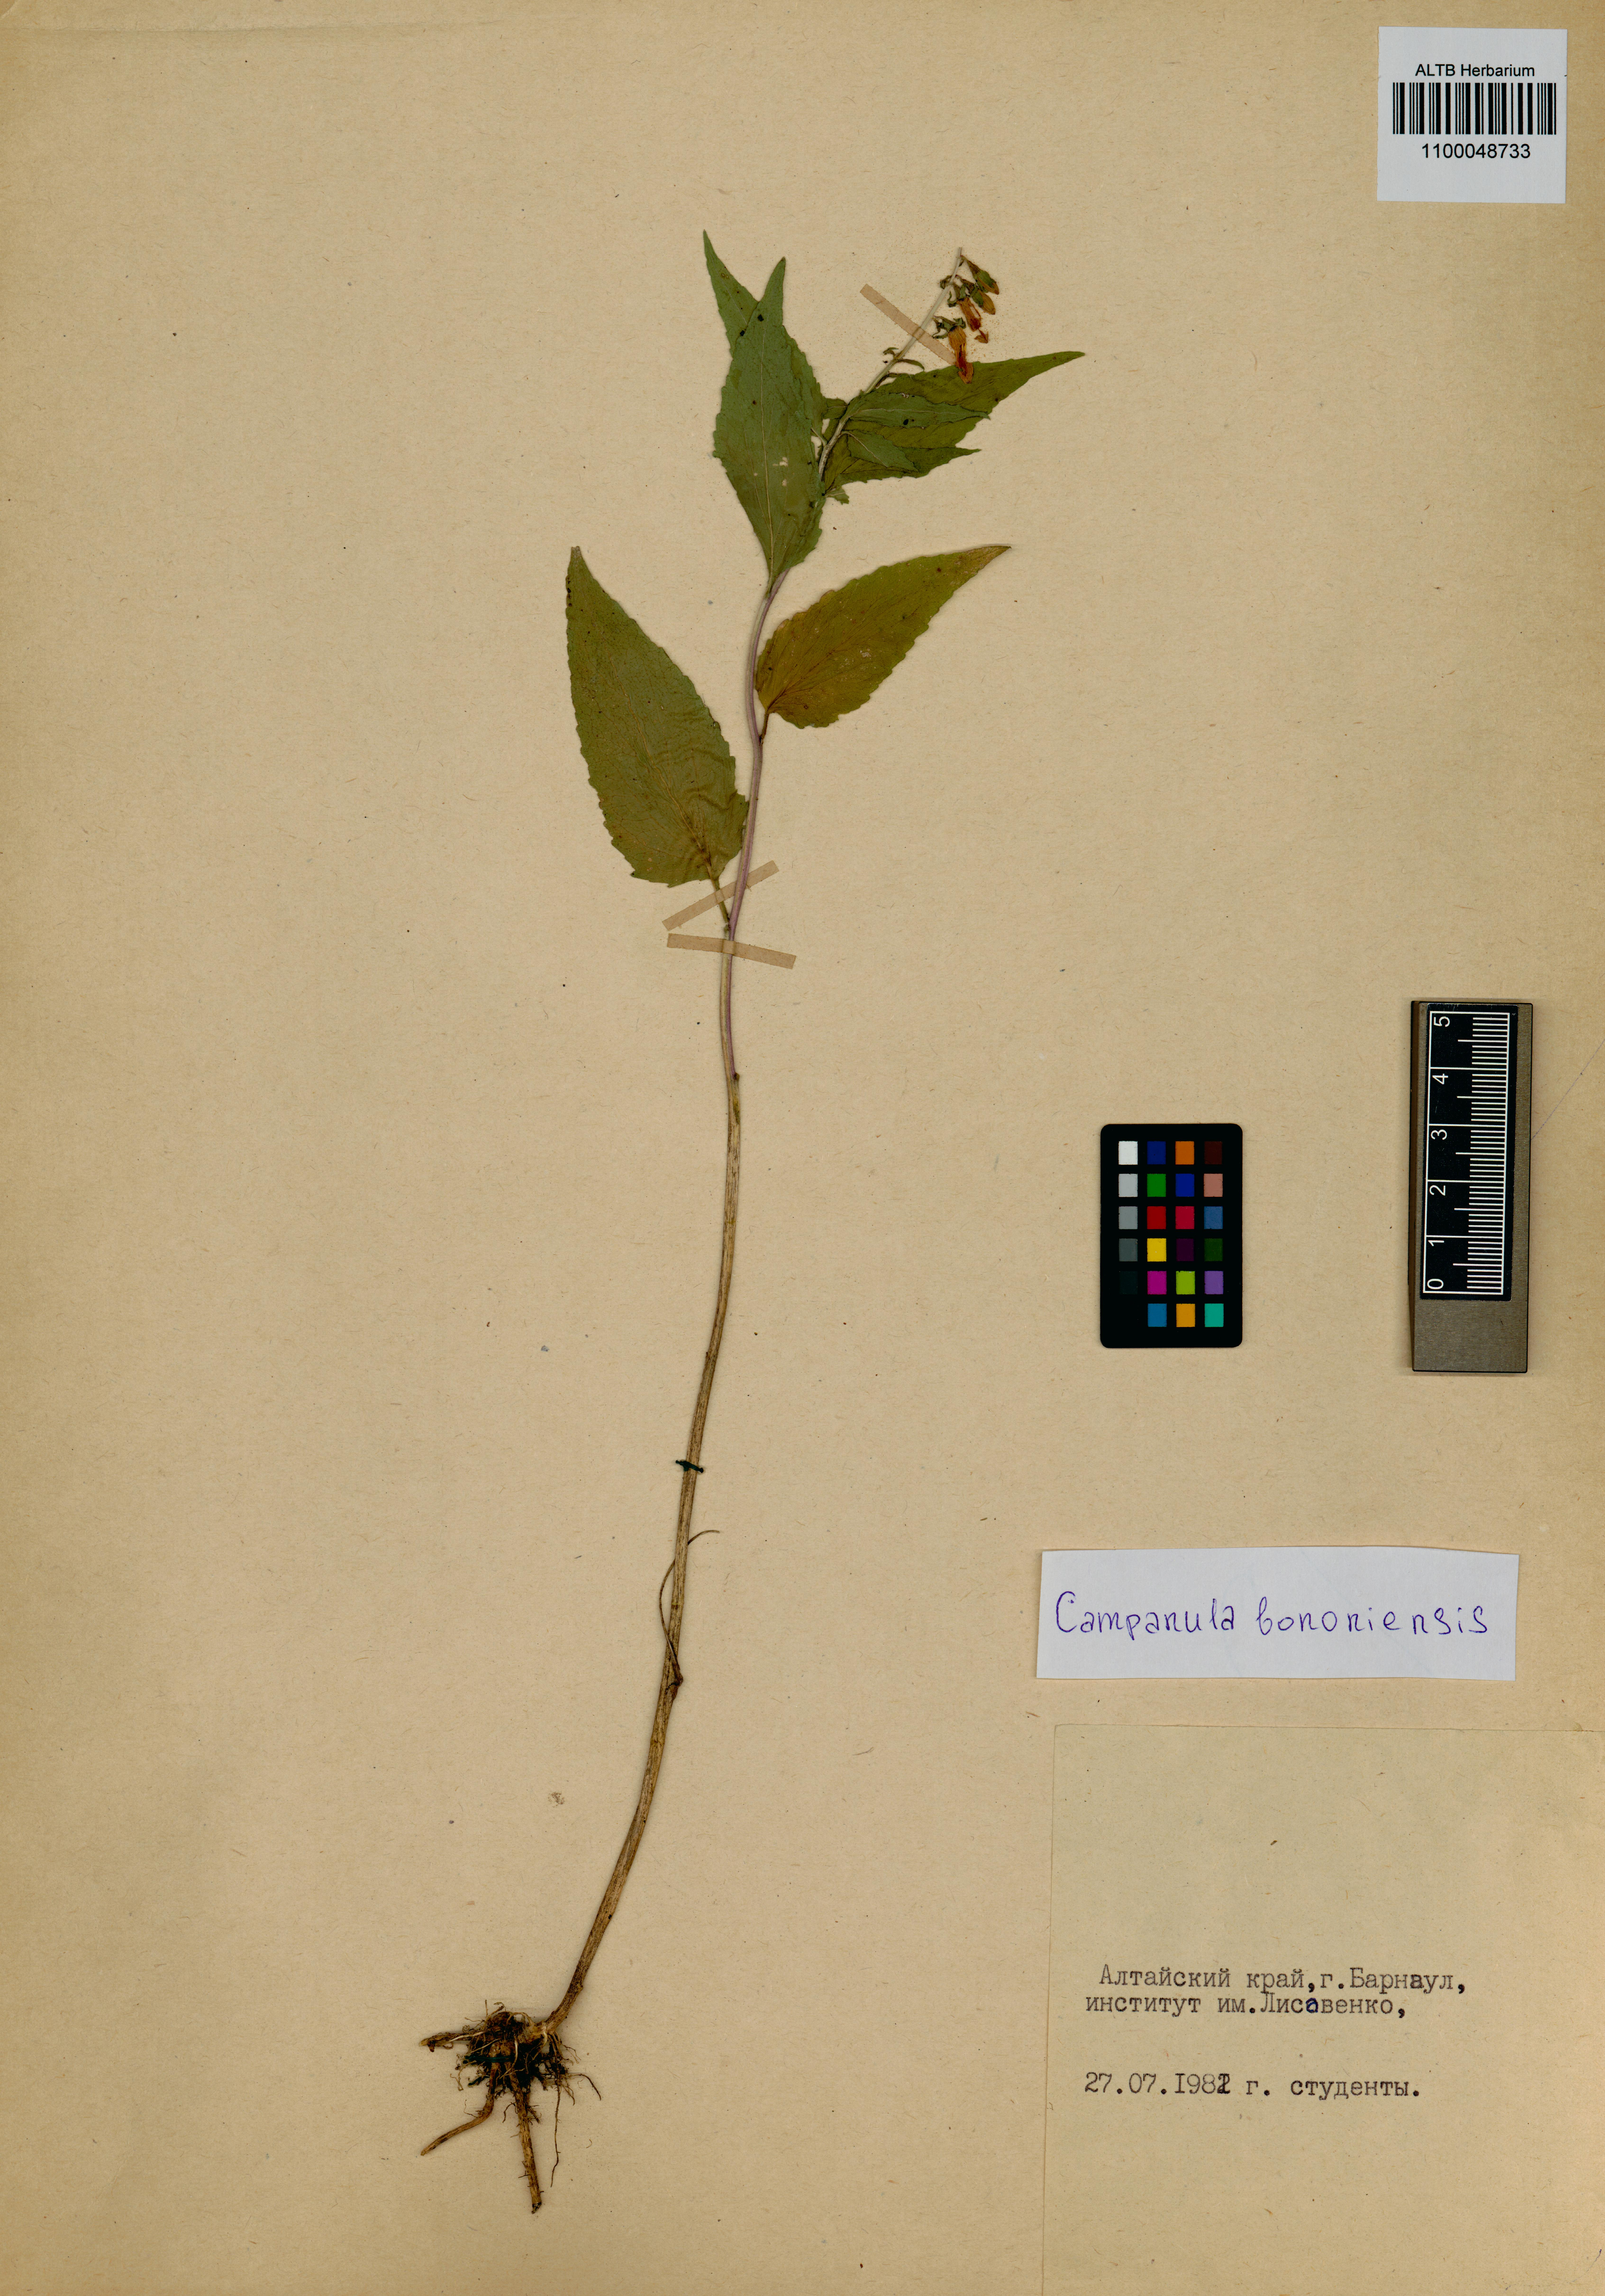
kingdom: Plantae
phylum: Tracheophyta
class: Magnoliopsida
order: Asterales
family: Campanulaceae
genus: Campanula
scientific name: Campanula bononiensis
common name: Pale bellflower
